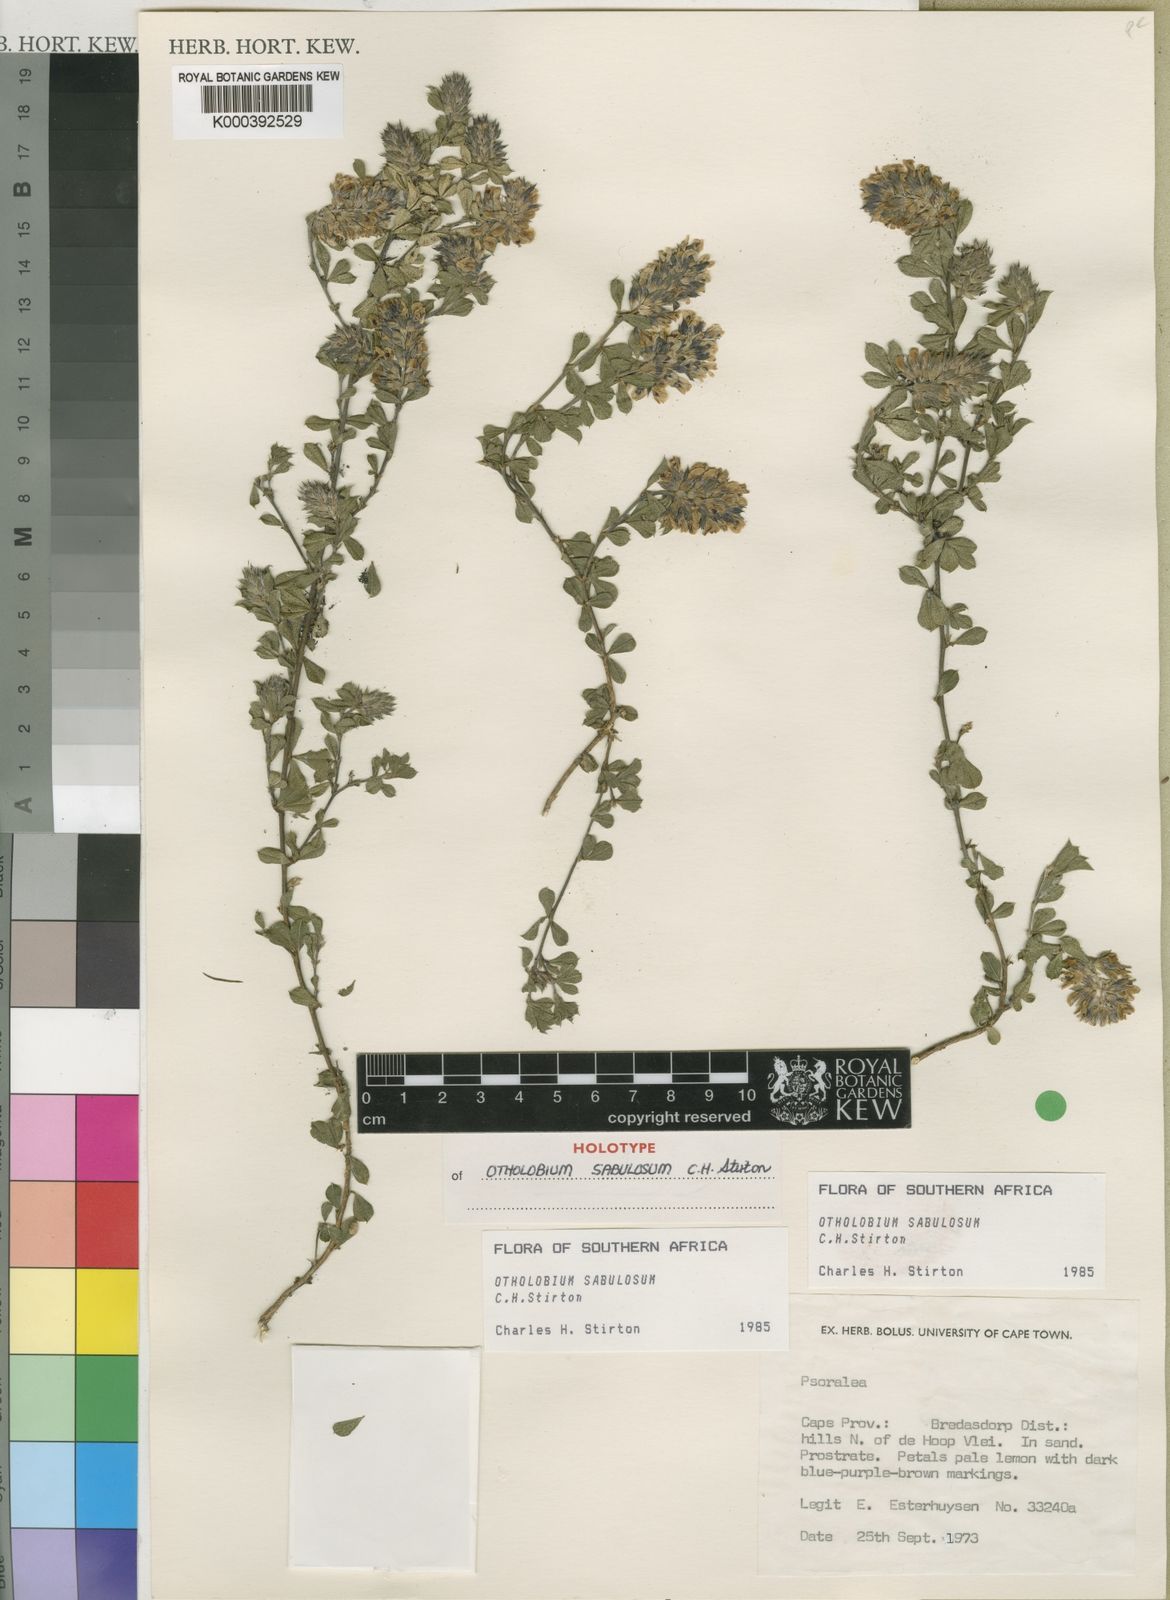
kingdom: Plantae
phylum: Tracheophyta
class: Magnoliopsida
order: Fabales
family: Fabaceae
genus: Psoralea
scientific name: Psoralea sabulosa
